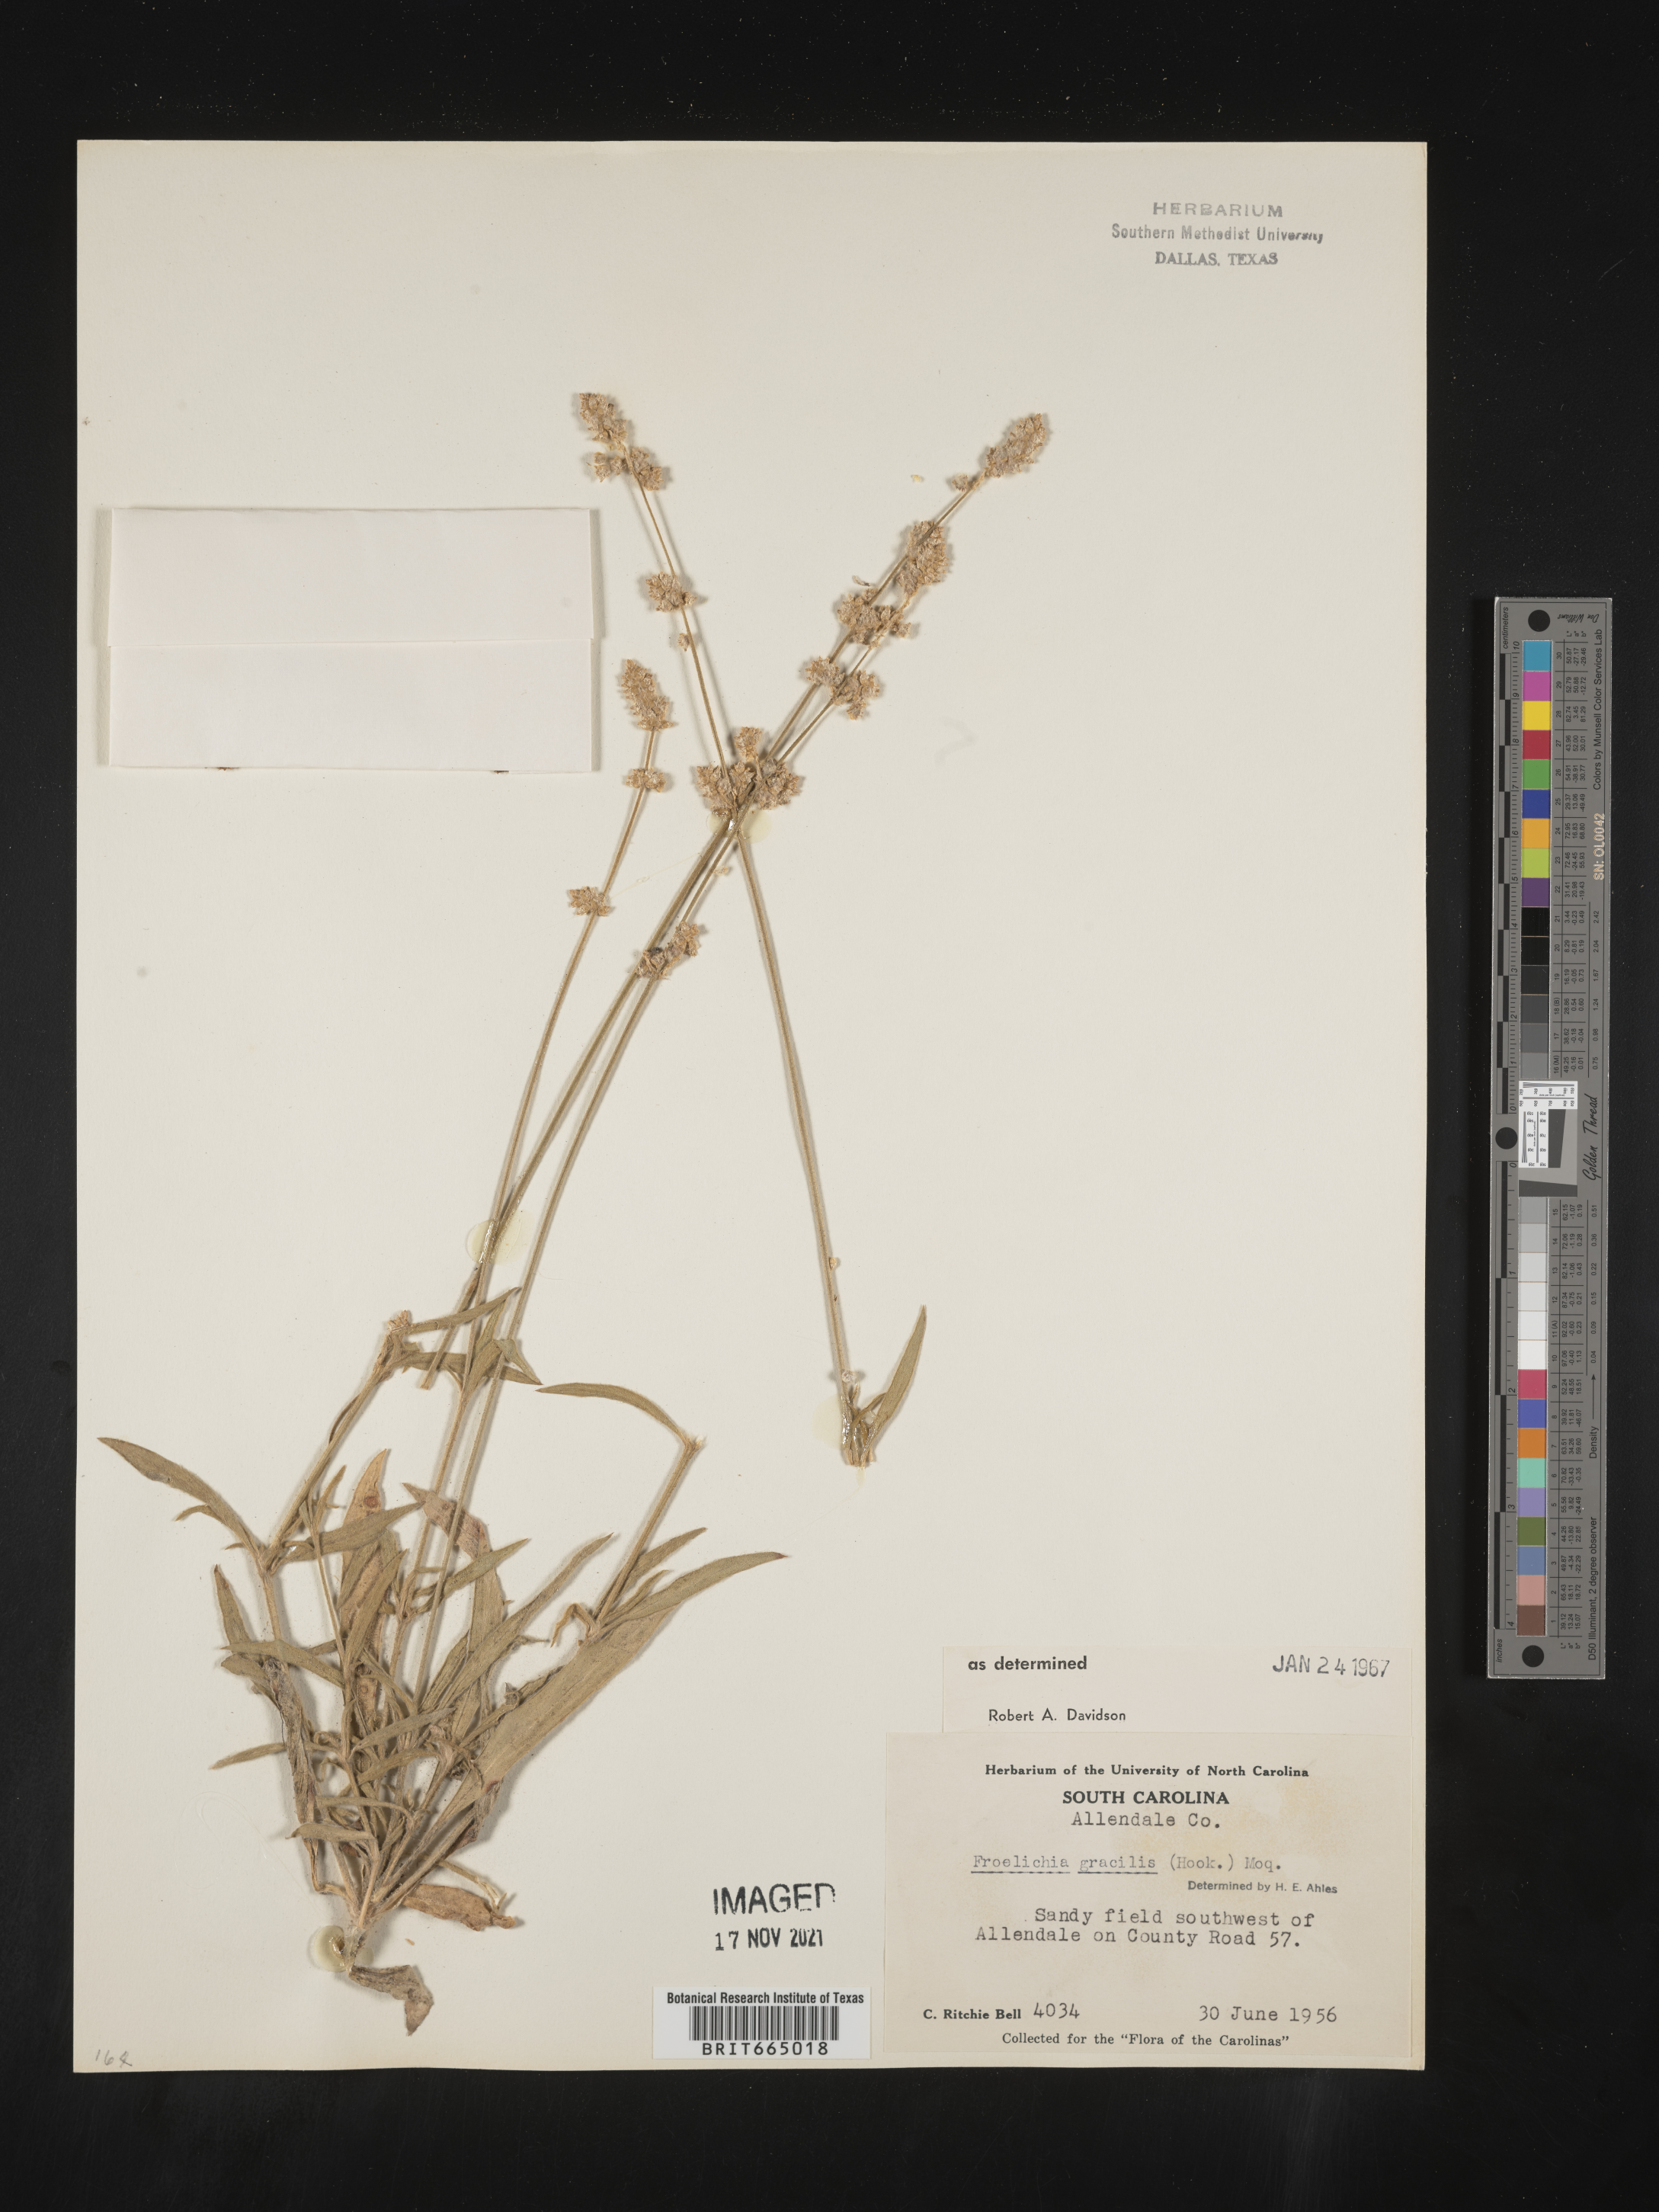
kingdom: Plantae
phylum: Tracheophyta
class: Magnoliopsida
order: Caryophyllales
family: Amaranthaceae
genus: Froelichia
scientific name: Froelichia gracilis
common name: Slender cottonweed
